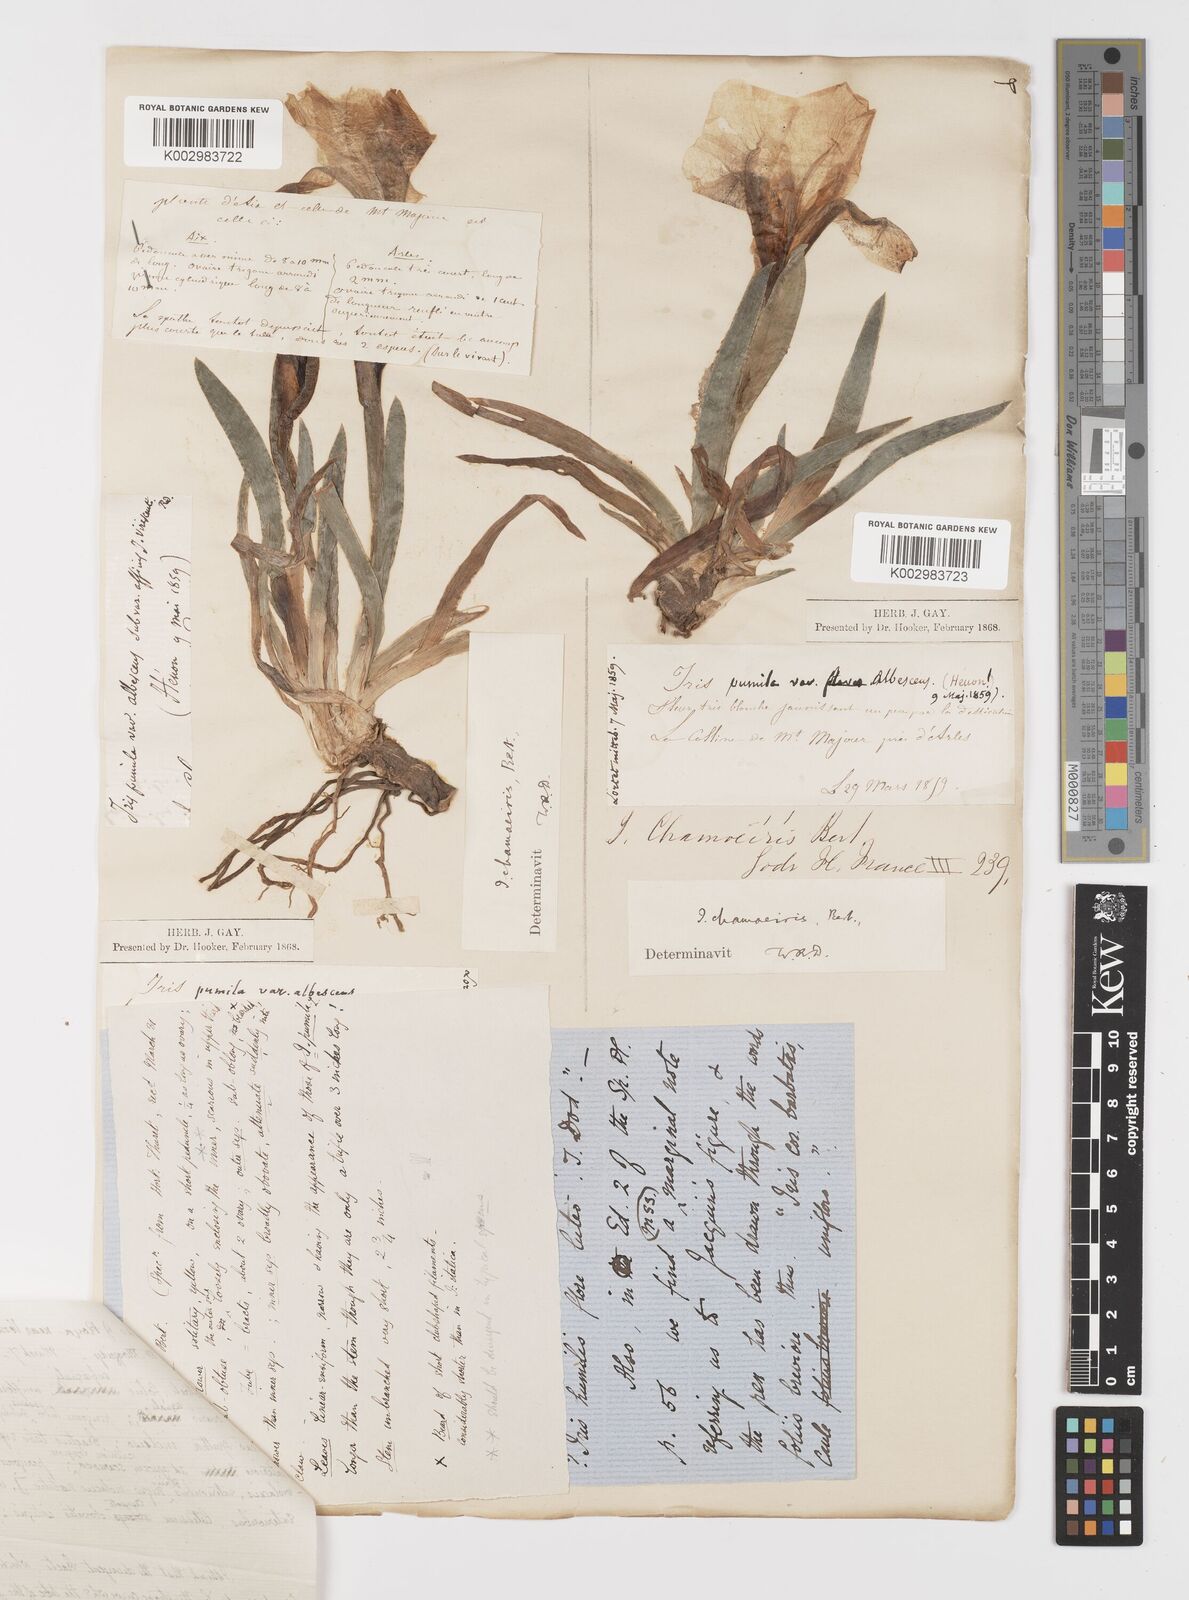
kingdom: Plantae
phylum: Tracheophyta
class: Liliopsida
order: Asparagales
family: Iridaceae
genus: Iris
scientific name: Iris lutescens
